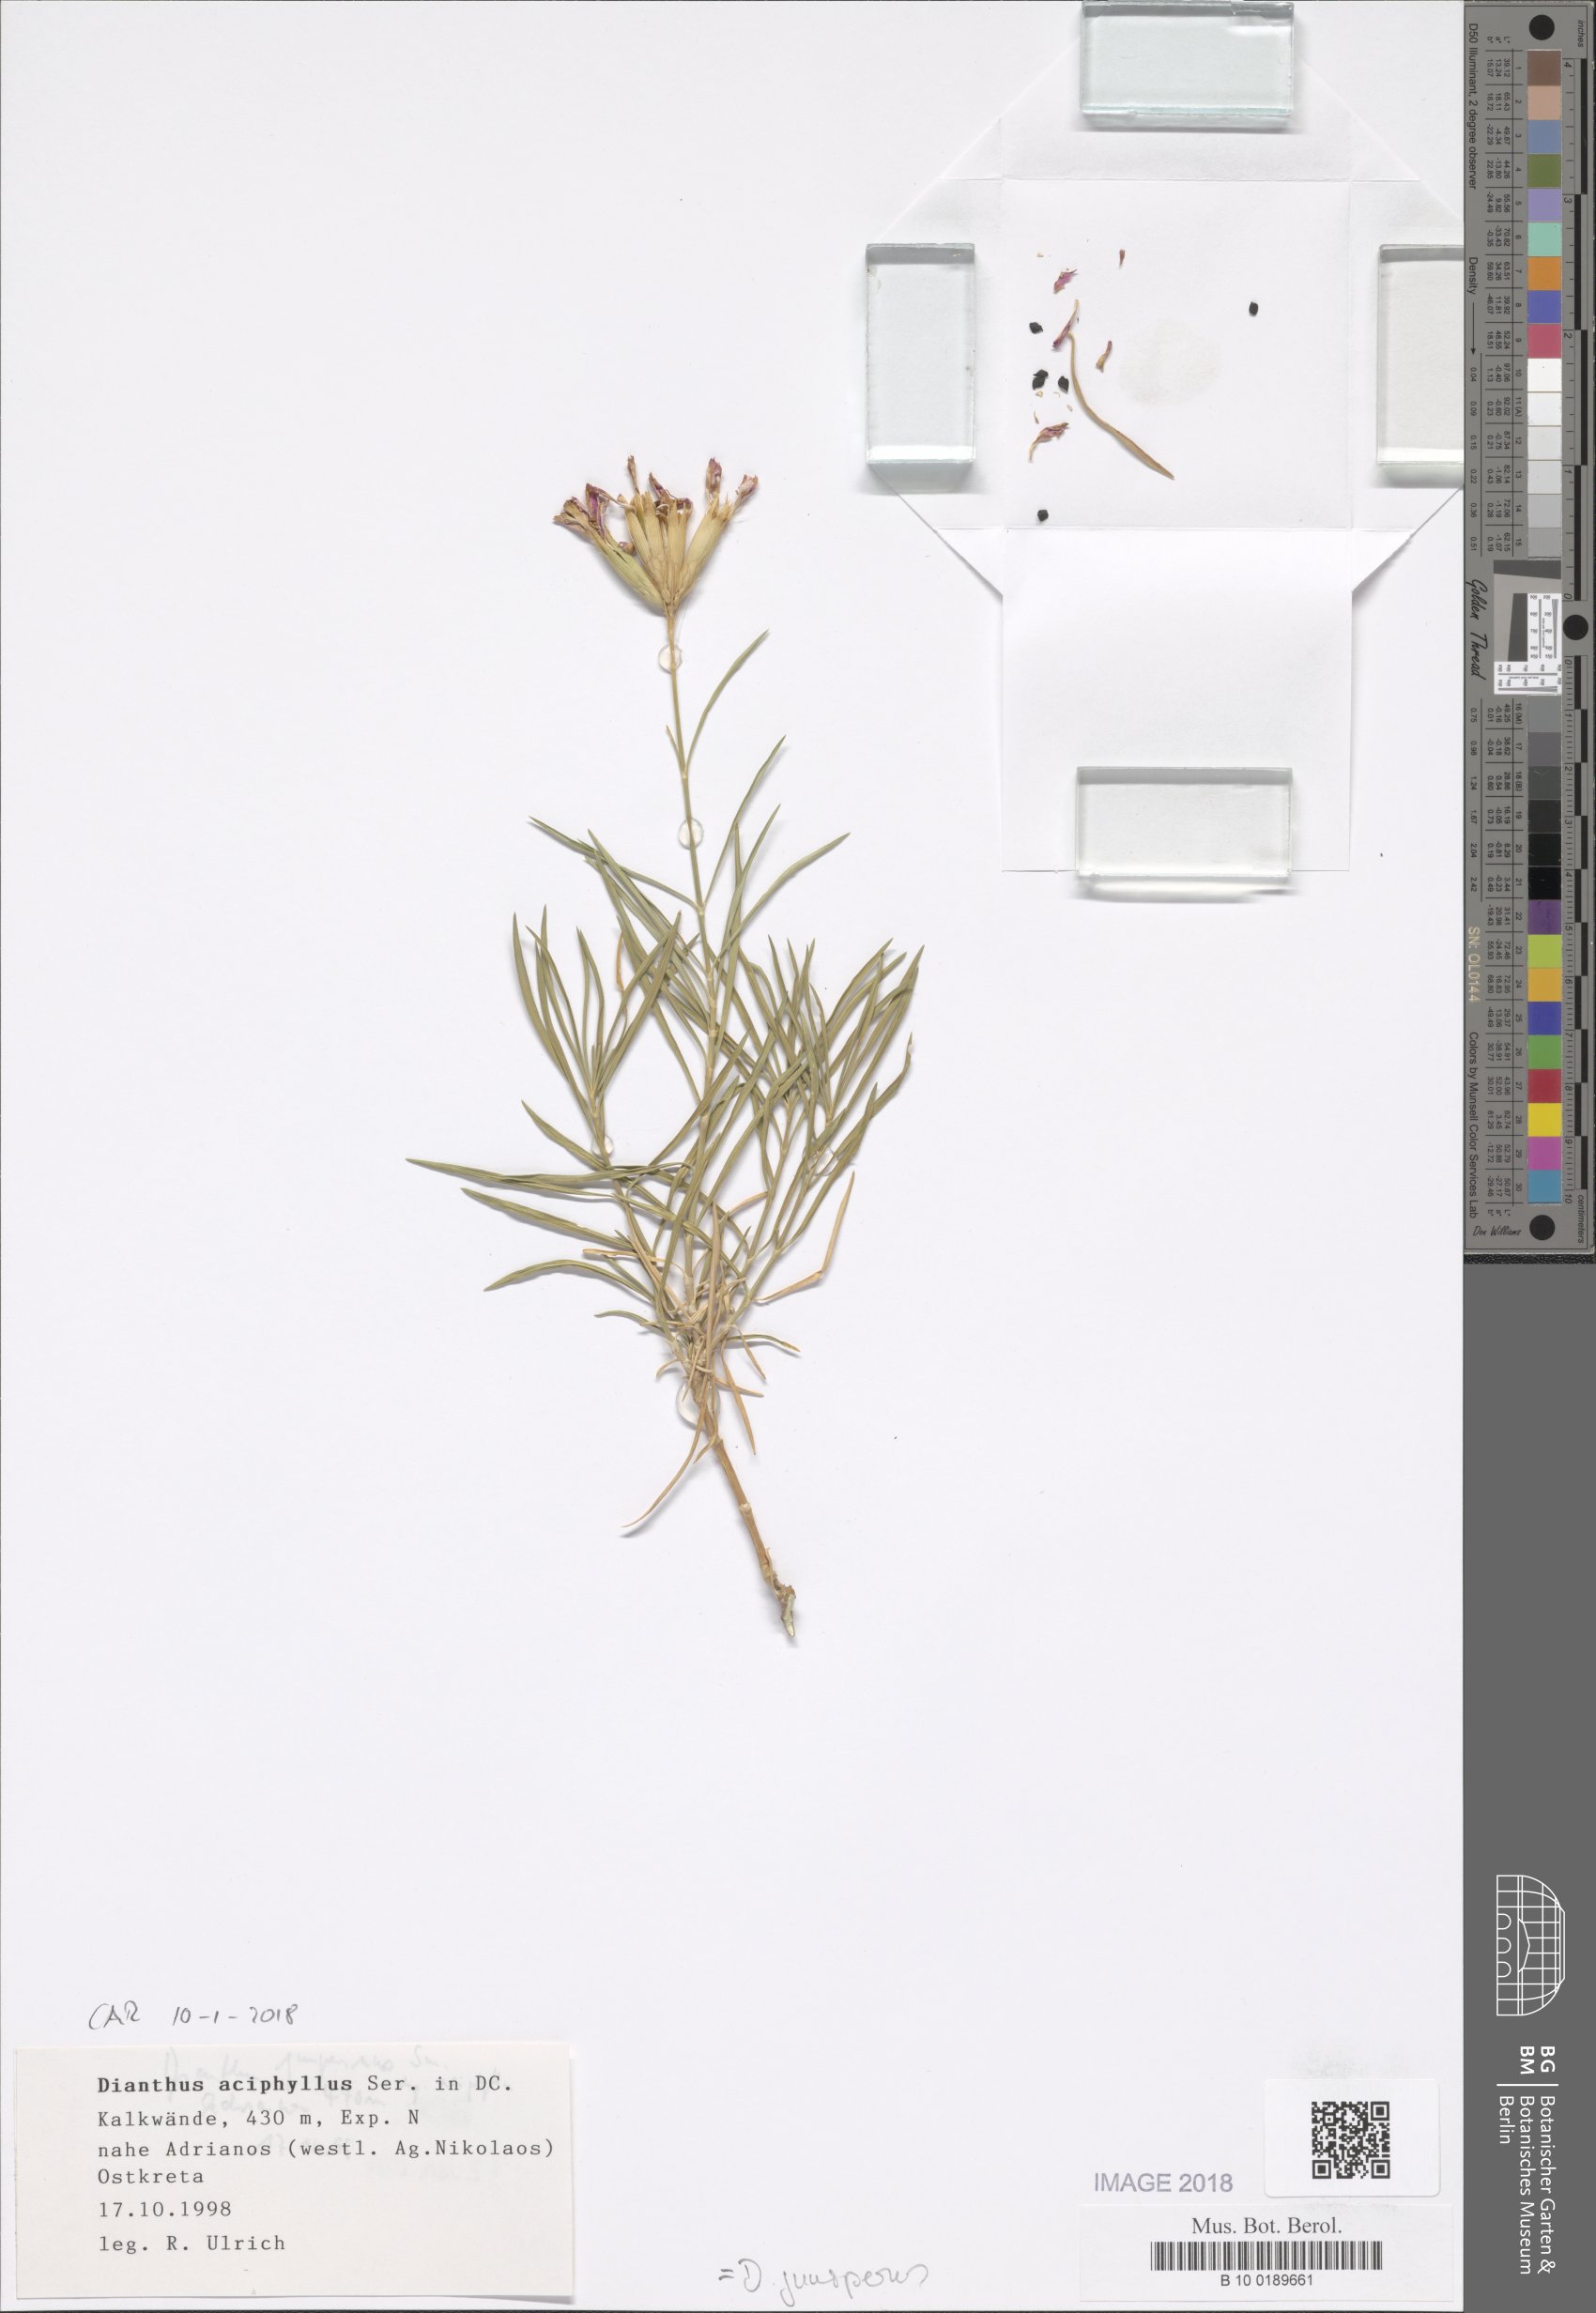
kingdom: Plantae
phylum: Tracheophyta
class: Magnoliopsida
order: Caryophyllales
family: Caryophyllaceae
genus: Dianthus
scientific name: Dianthus juniperinus
